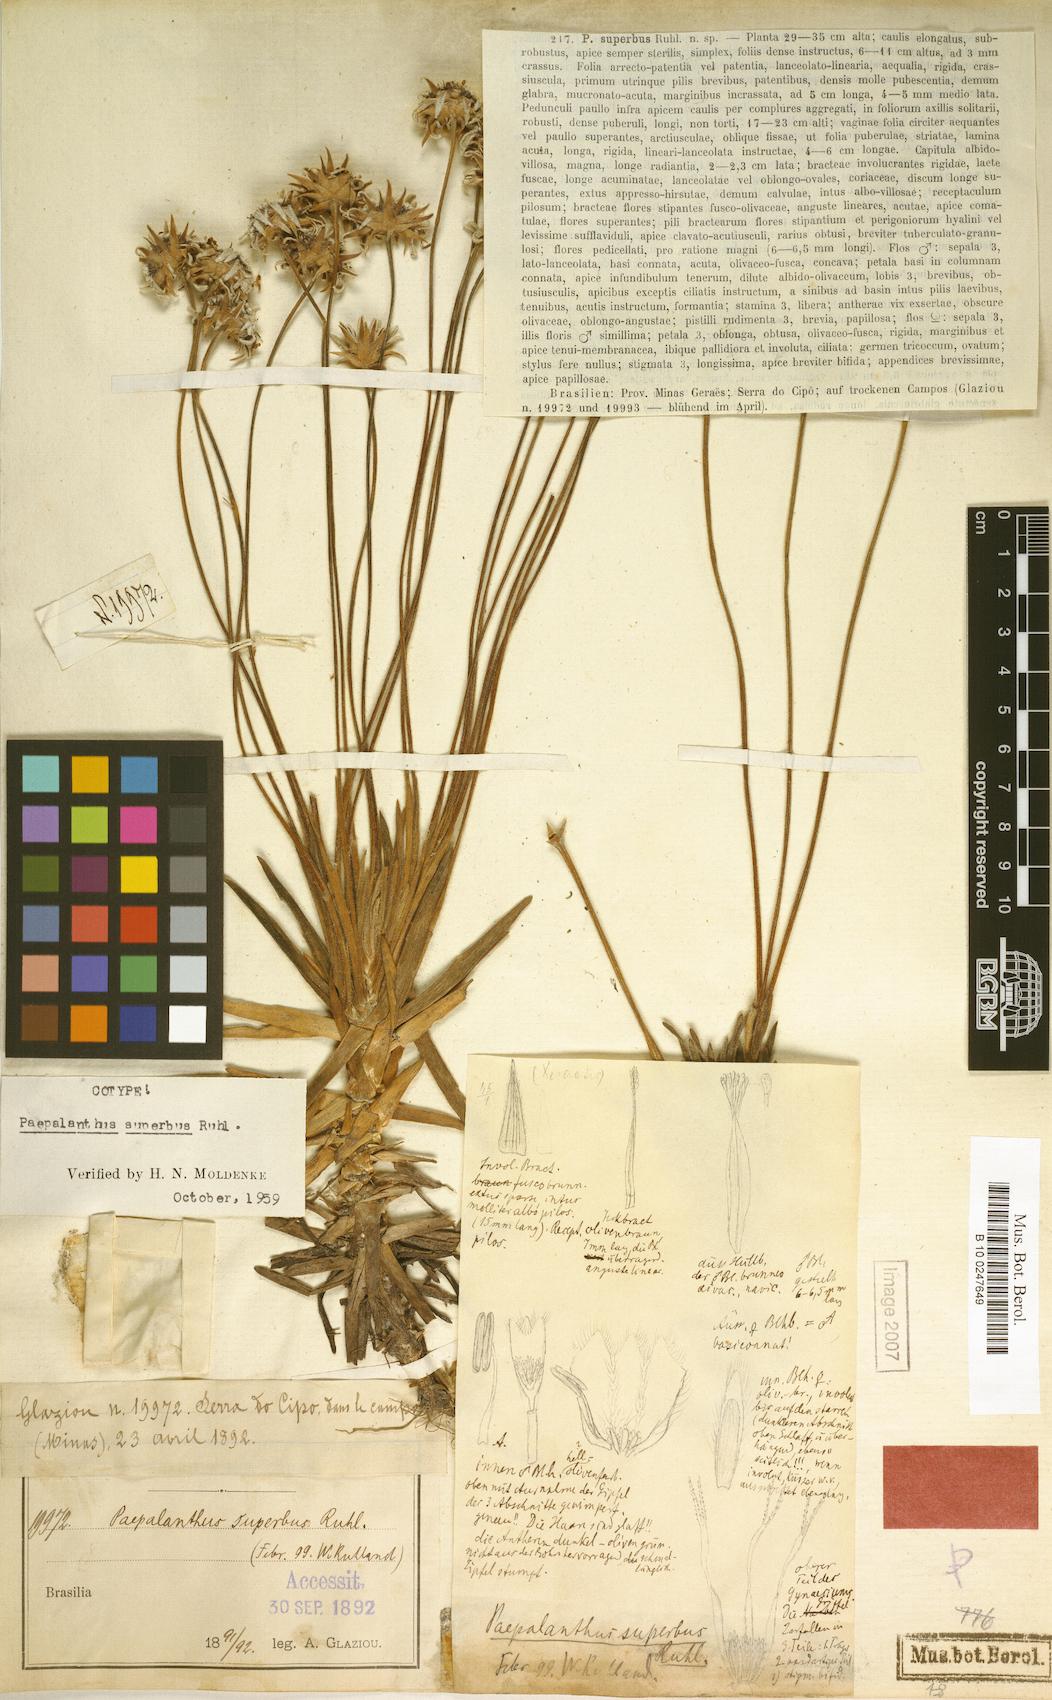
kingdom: Plantae
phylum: Tracheophyta
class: Liliopsida
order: Poales
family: Eriocaulaceae
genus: Paepalanthus
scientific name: Paepalanthus superbus
